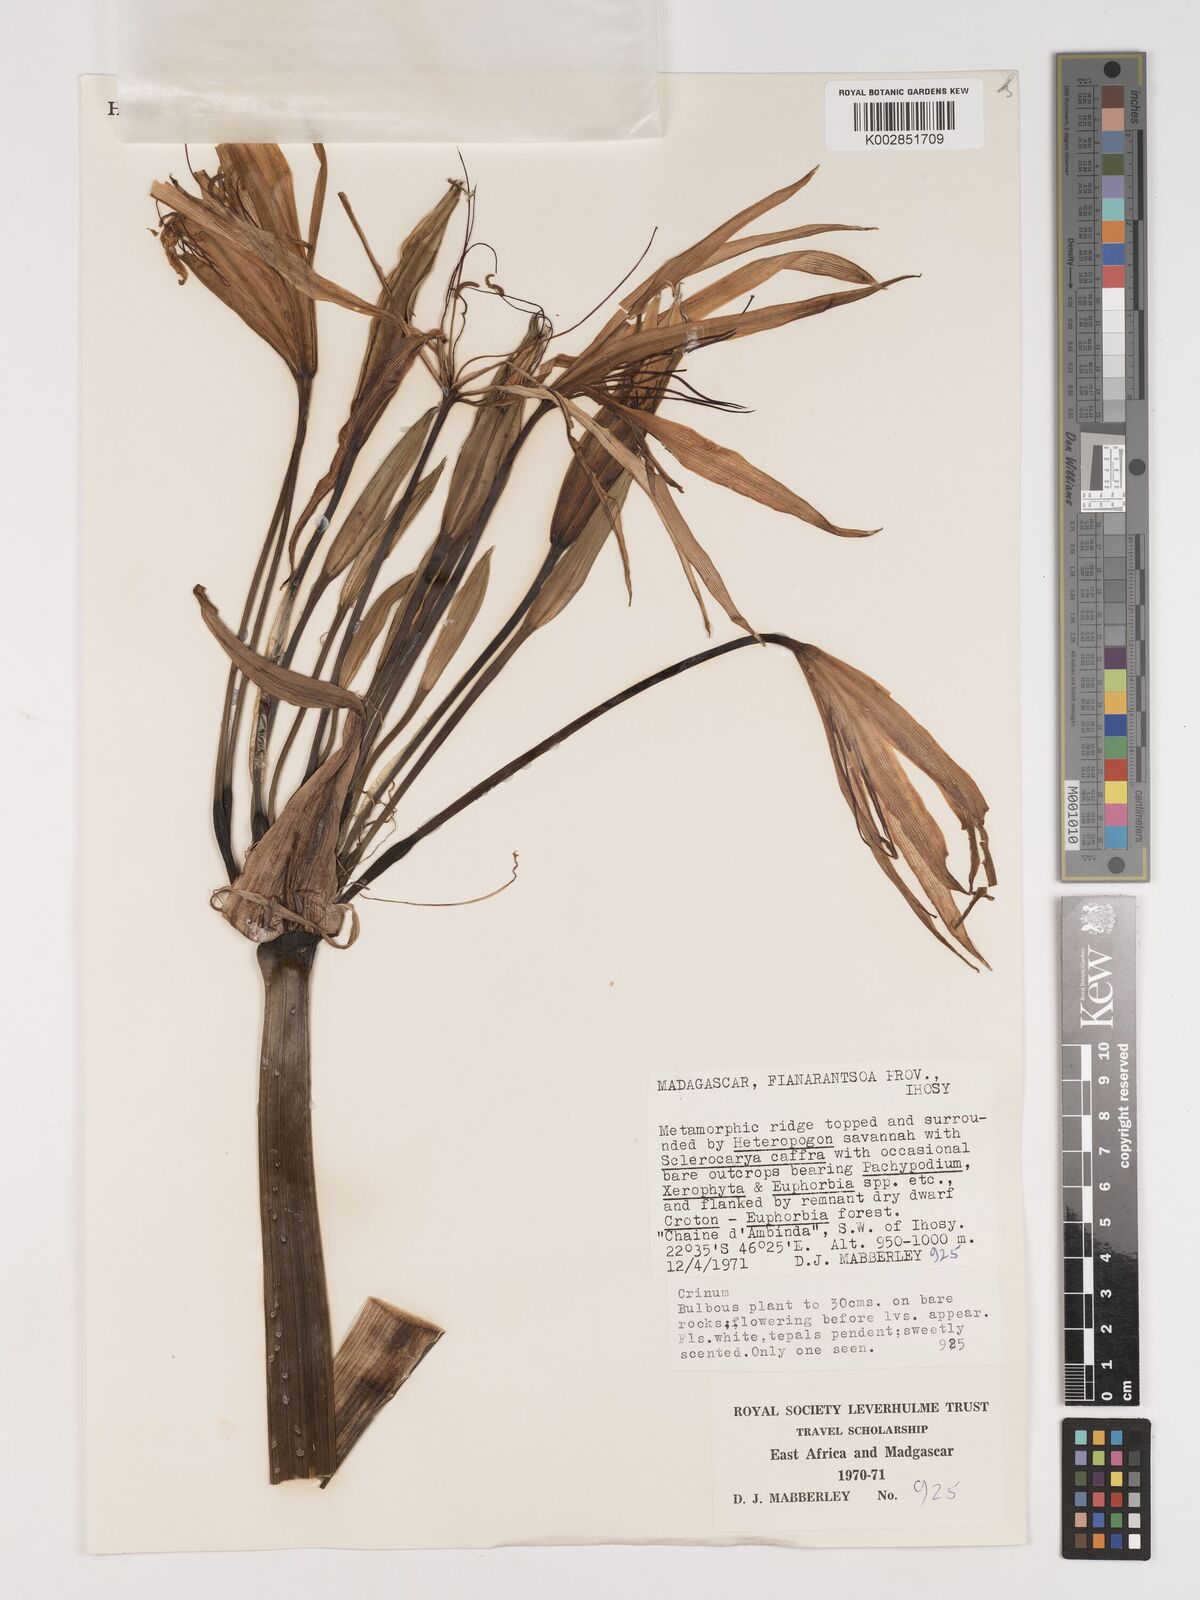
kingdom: Plantae
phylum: Tracheophyta
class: Liliopsida
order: Asparagales
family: Amaryllidaceae
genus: Crinum
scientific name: Crinum
